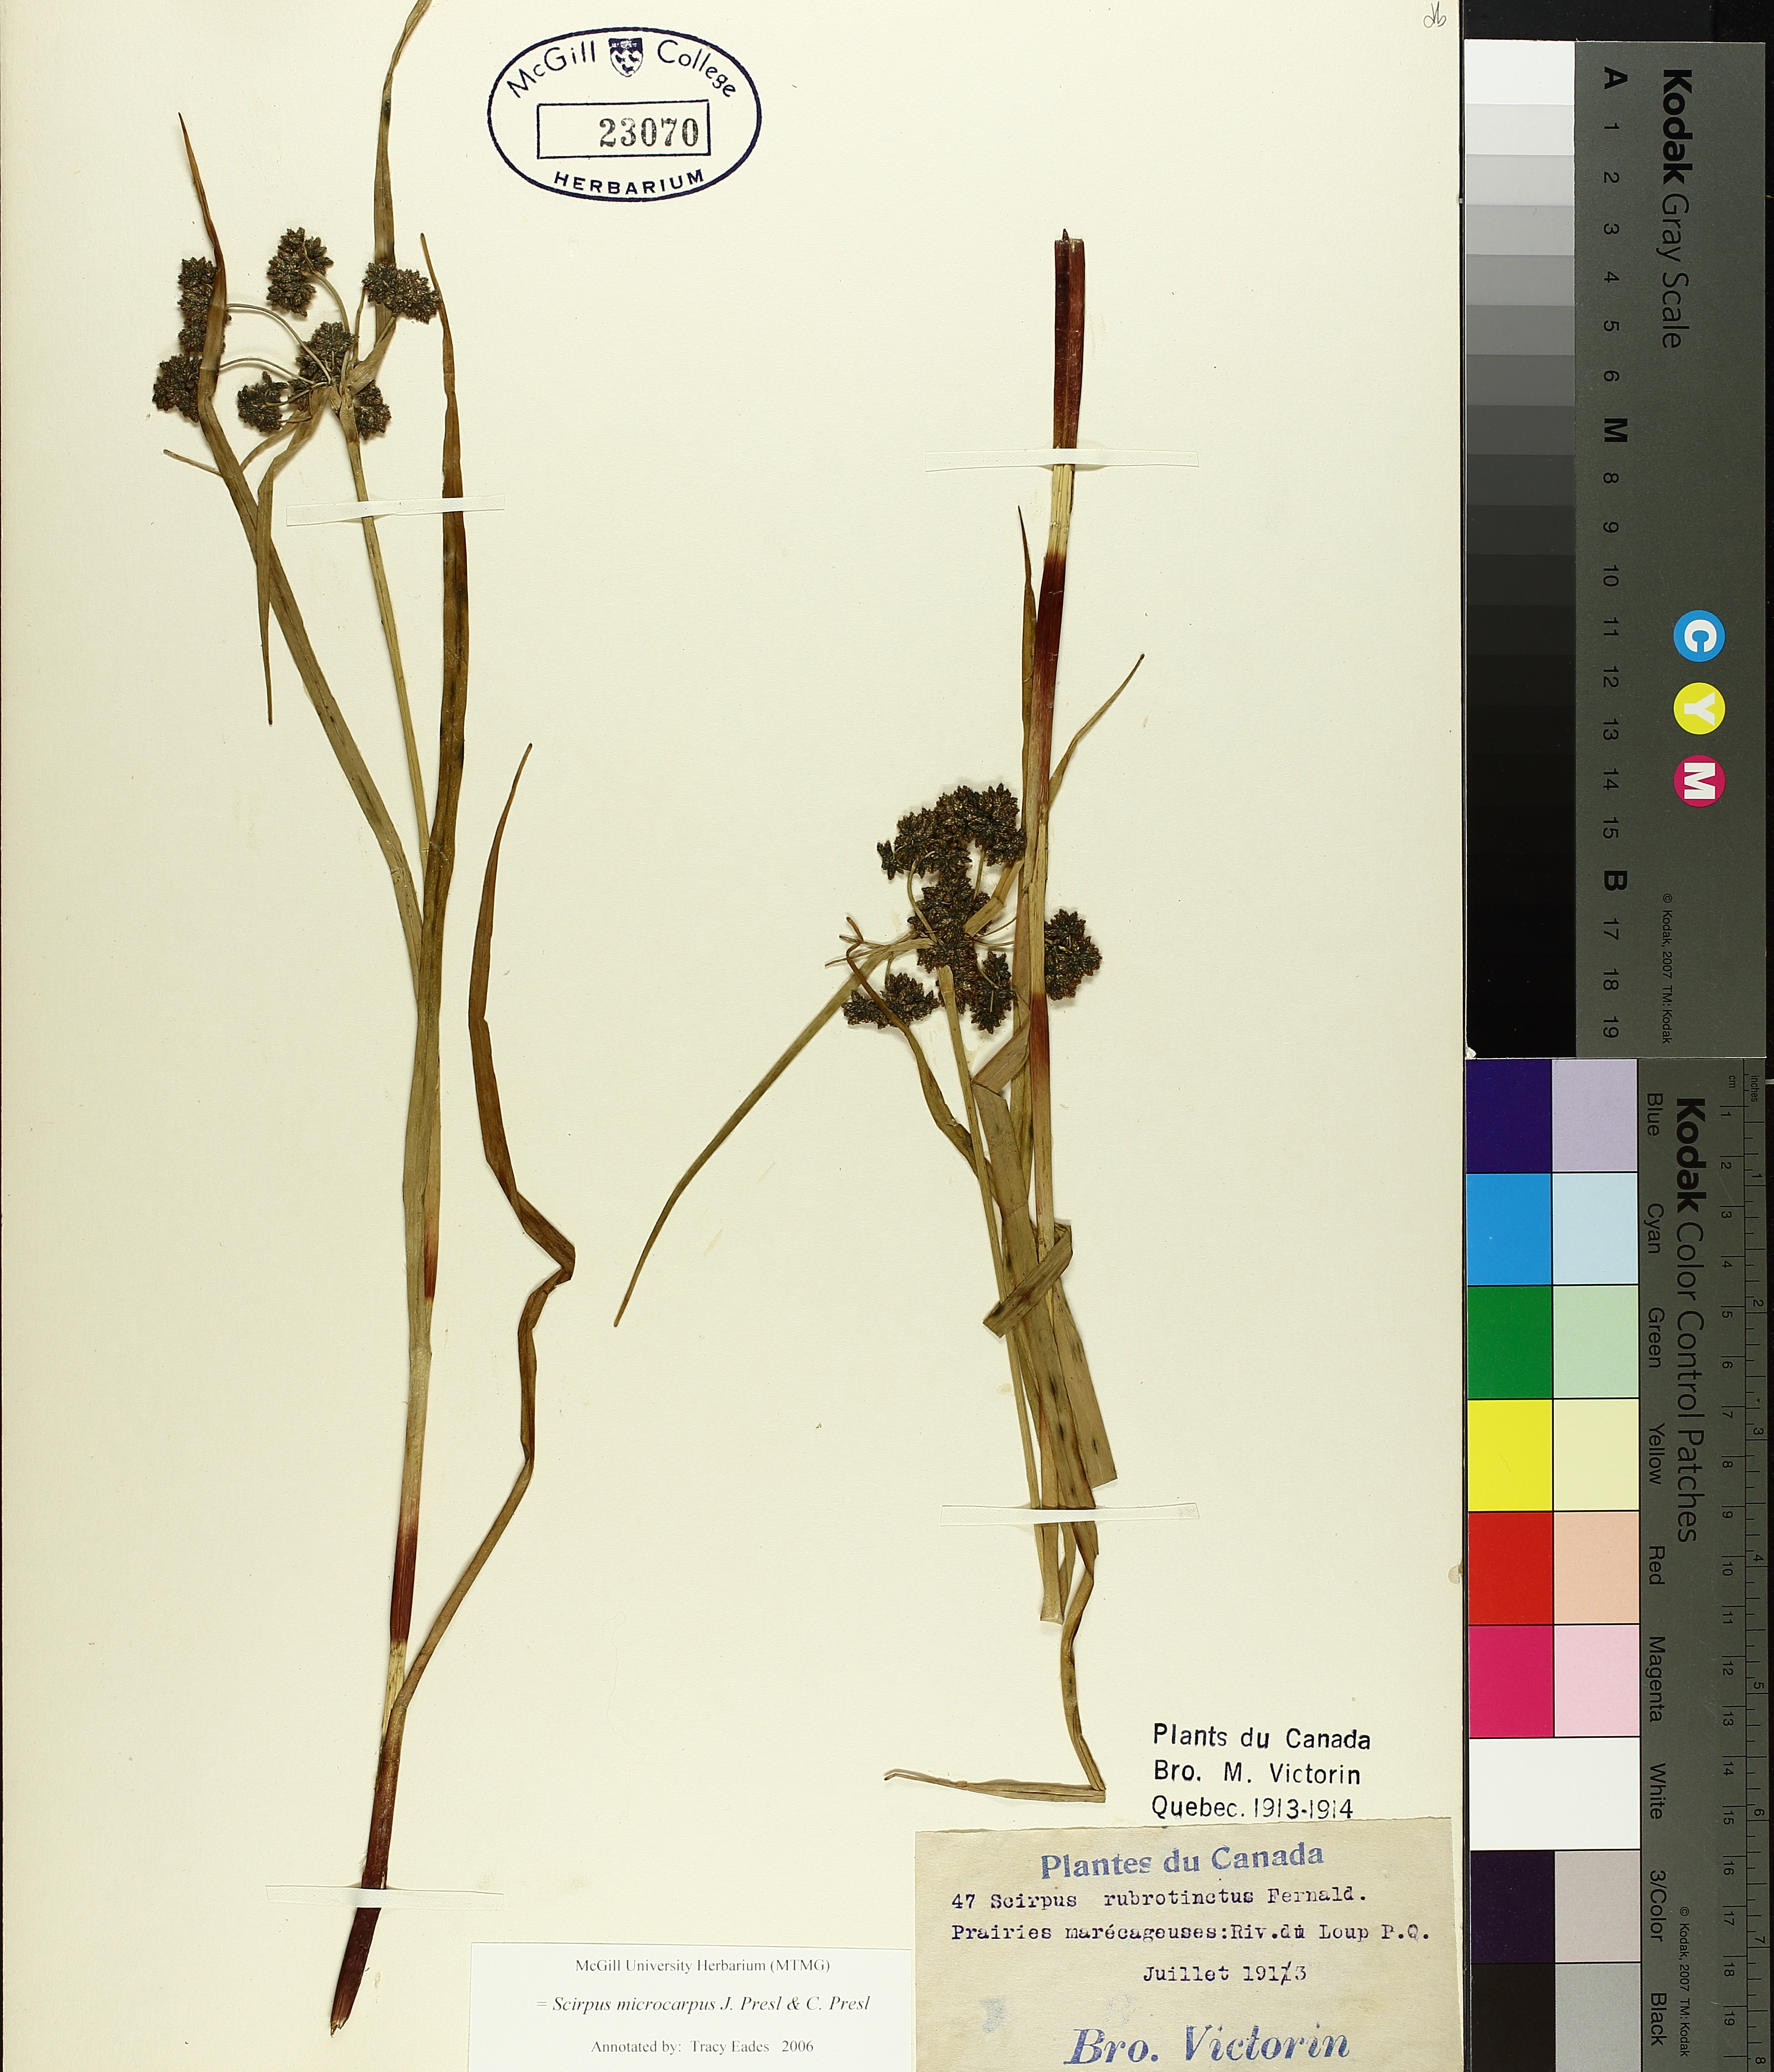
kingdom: Plantae
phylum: Tracheophyta
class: Liliopsida
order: Poales
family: Cyperaceae
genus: Scirpus
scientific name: Scirpus microcarpus
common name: Panicled bulrush
